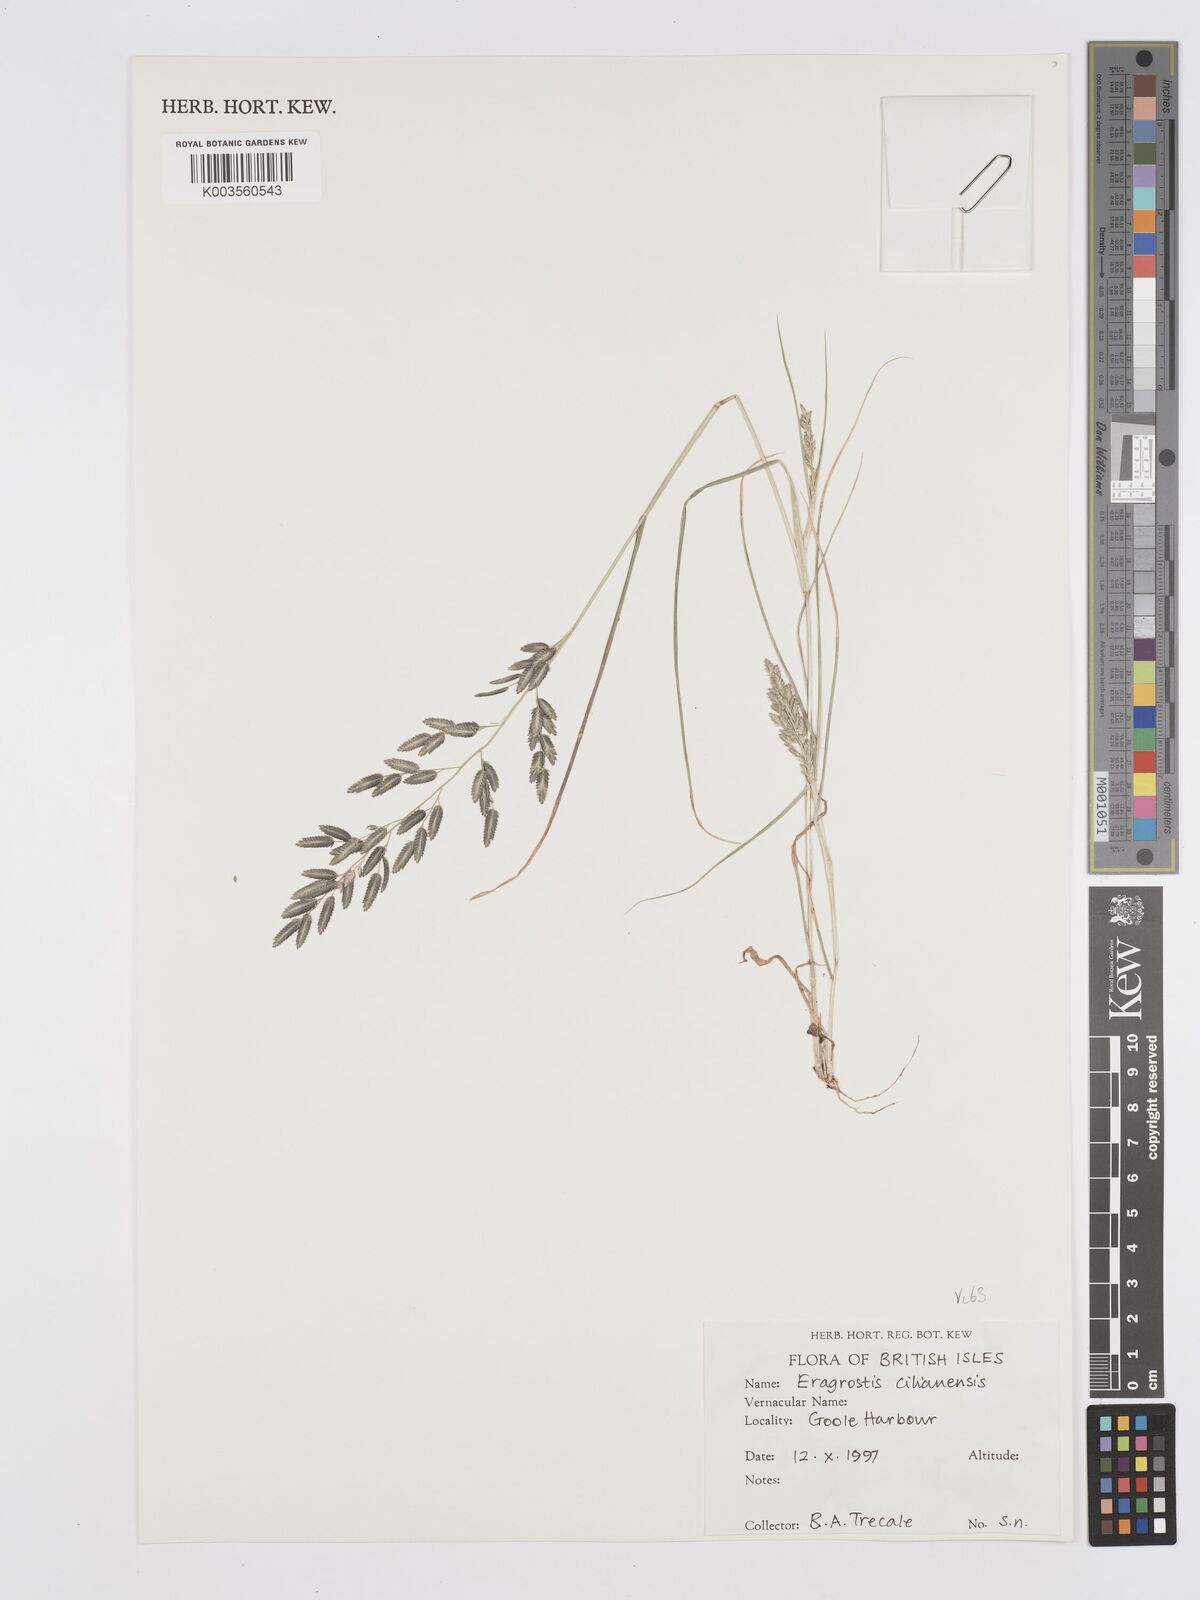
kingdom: Plantae
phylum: Tracheophyta
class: Liliopsida
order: Poales
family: Poaceae
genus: Eragrostis
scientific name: Eragrostis cilianensis
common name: Stinkgrass
